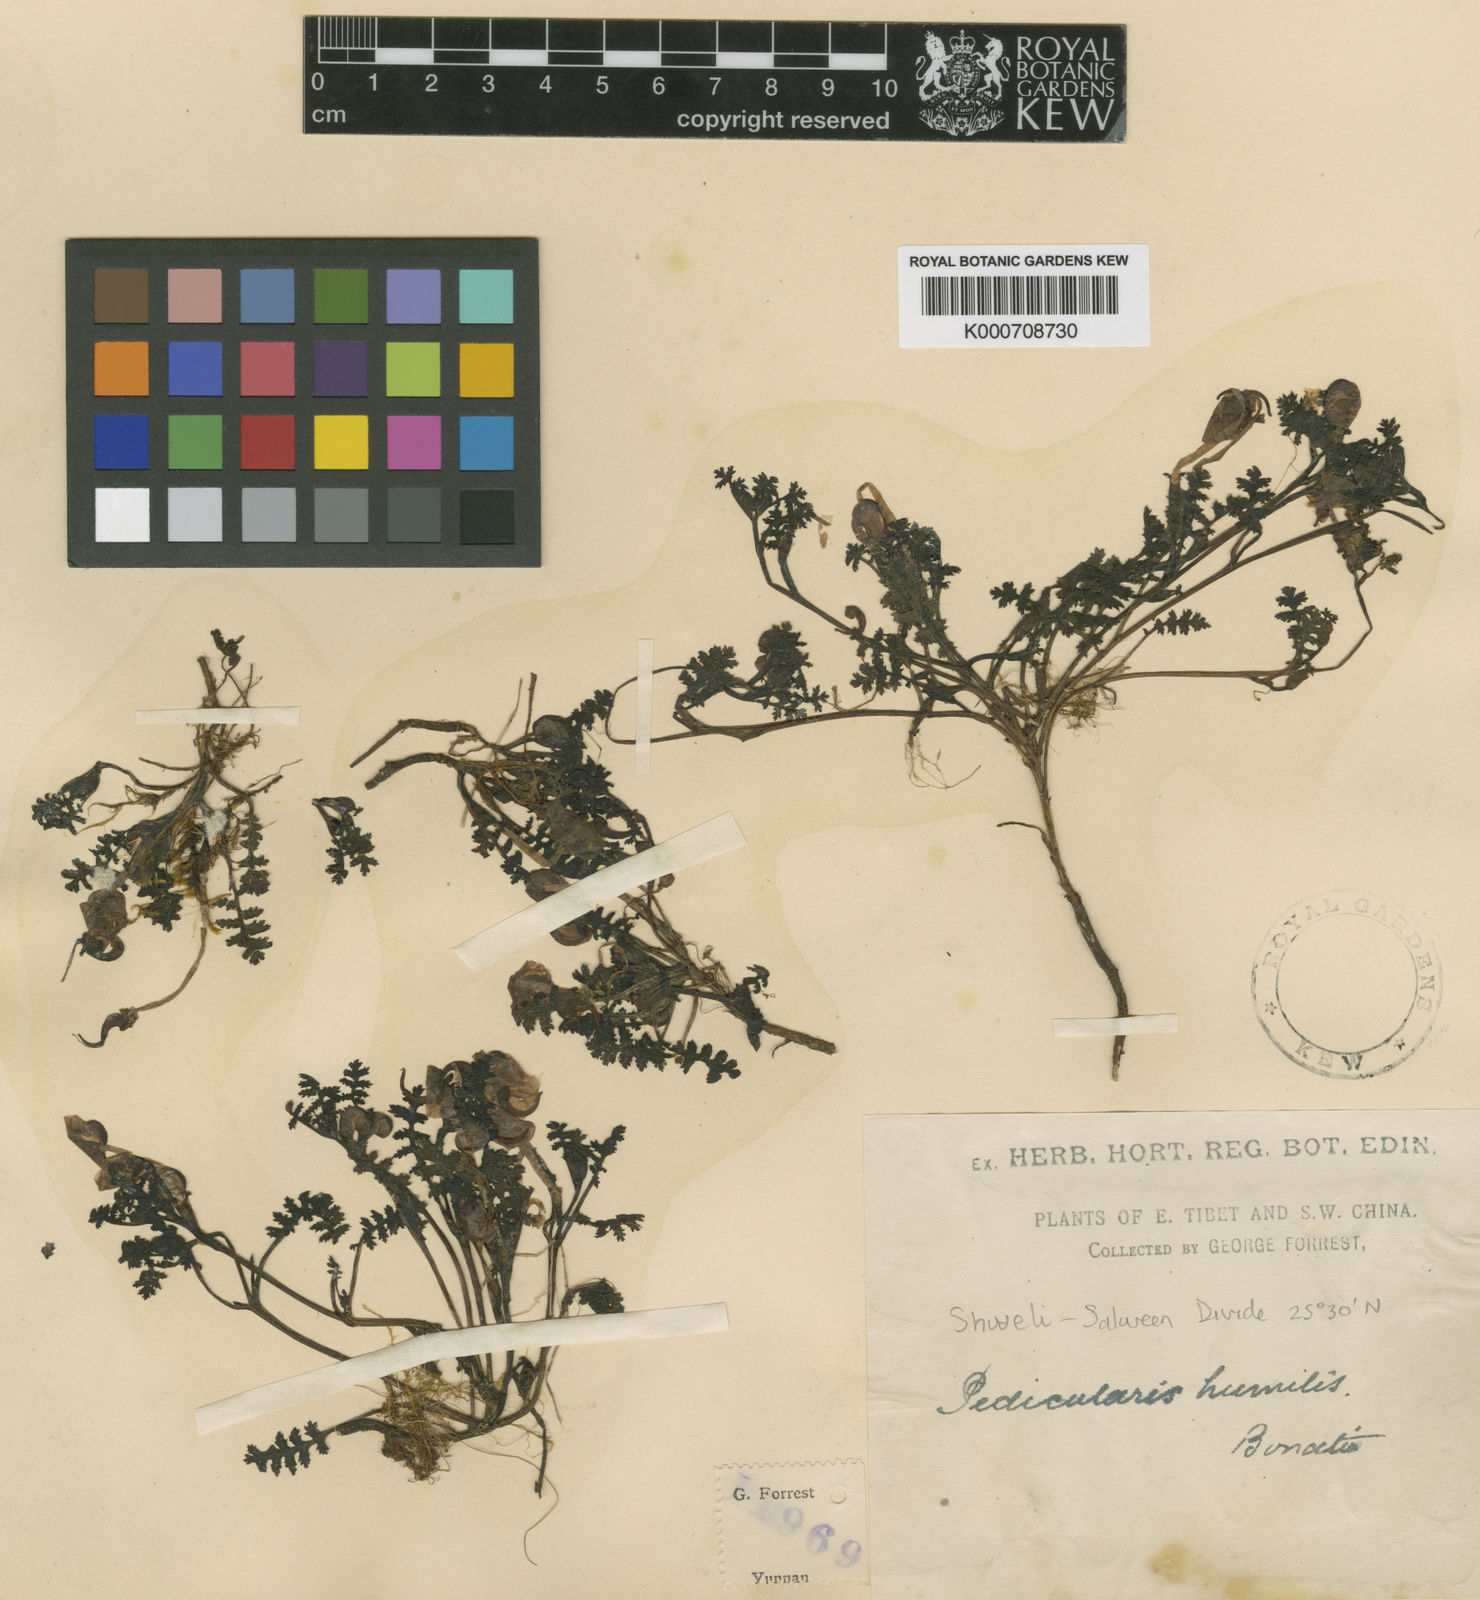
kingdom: Plantae
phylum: Tracheophyta
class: Magnoliopsida
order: Lamiales
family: Orobanchaceae
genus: Pedicularis
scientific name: Pedicularis humilis
